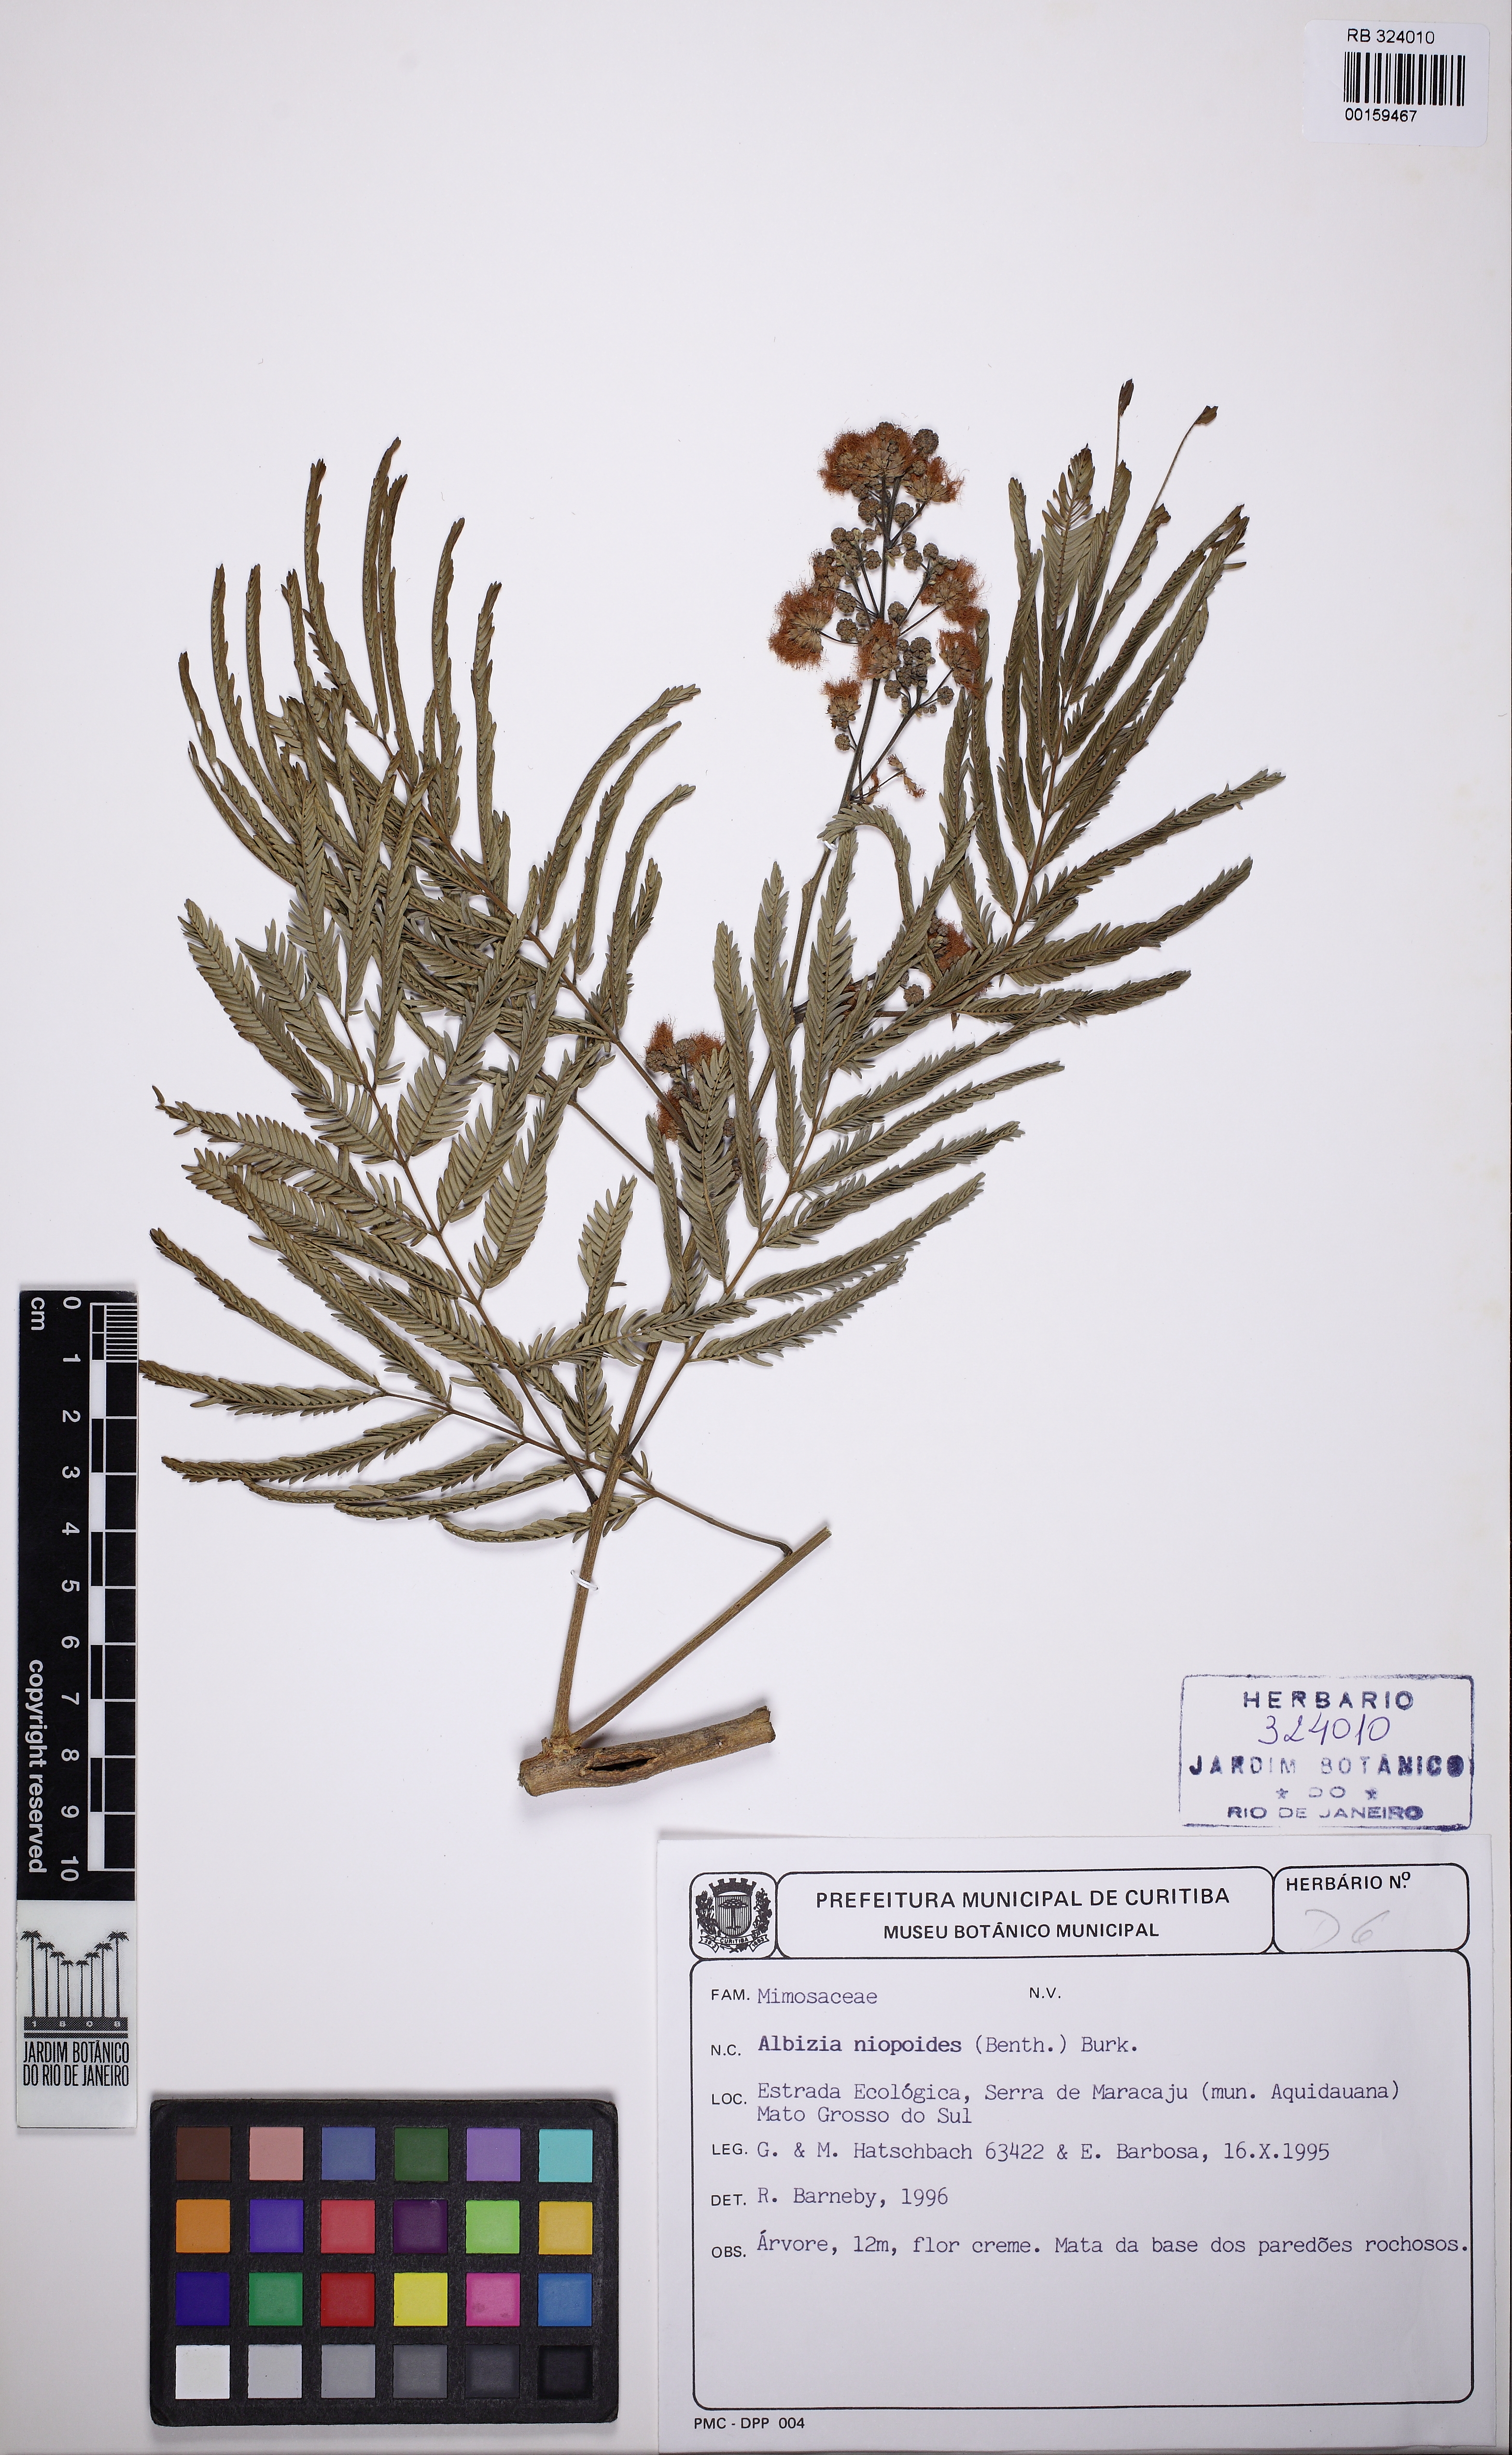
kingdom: Plantae
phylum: Tracheophyta
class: Magnoliopsida
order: Fabales
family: Fabaceae
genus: Albizia
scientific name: Albizia niopoides
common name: Silk tree
